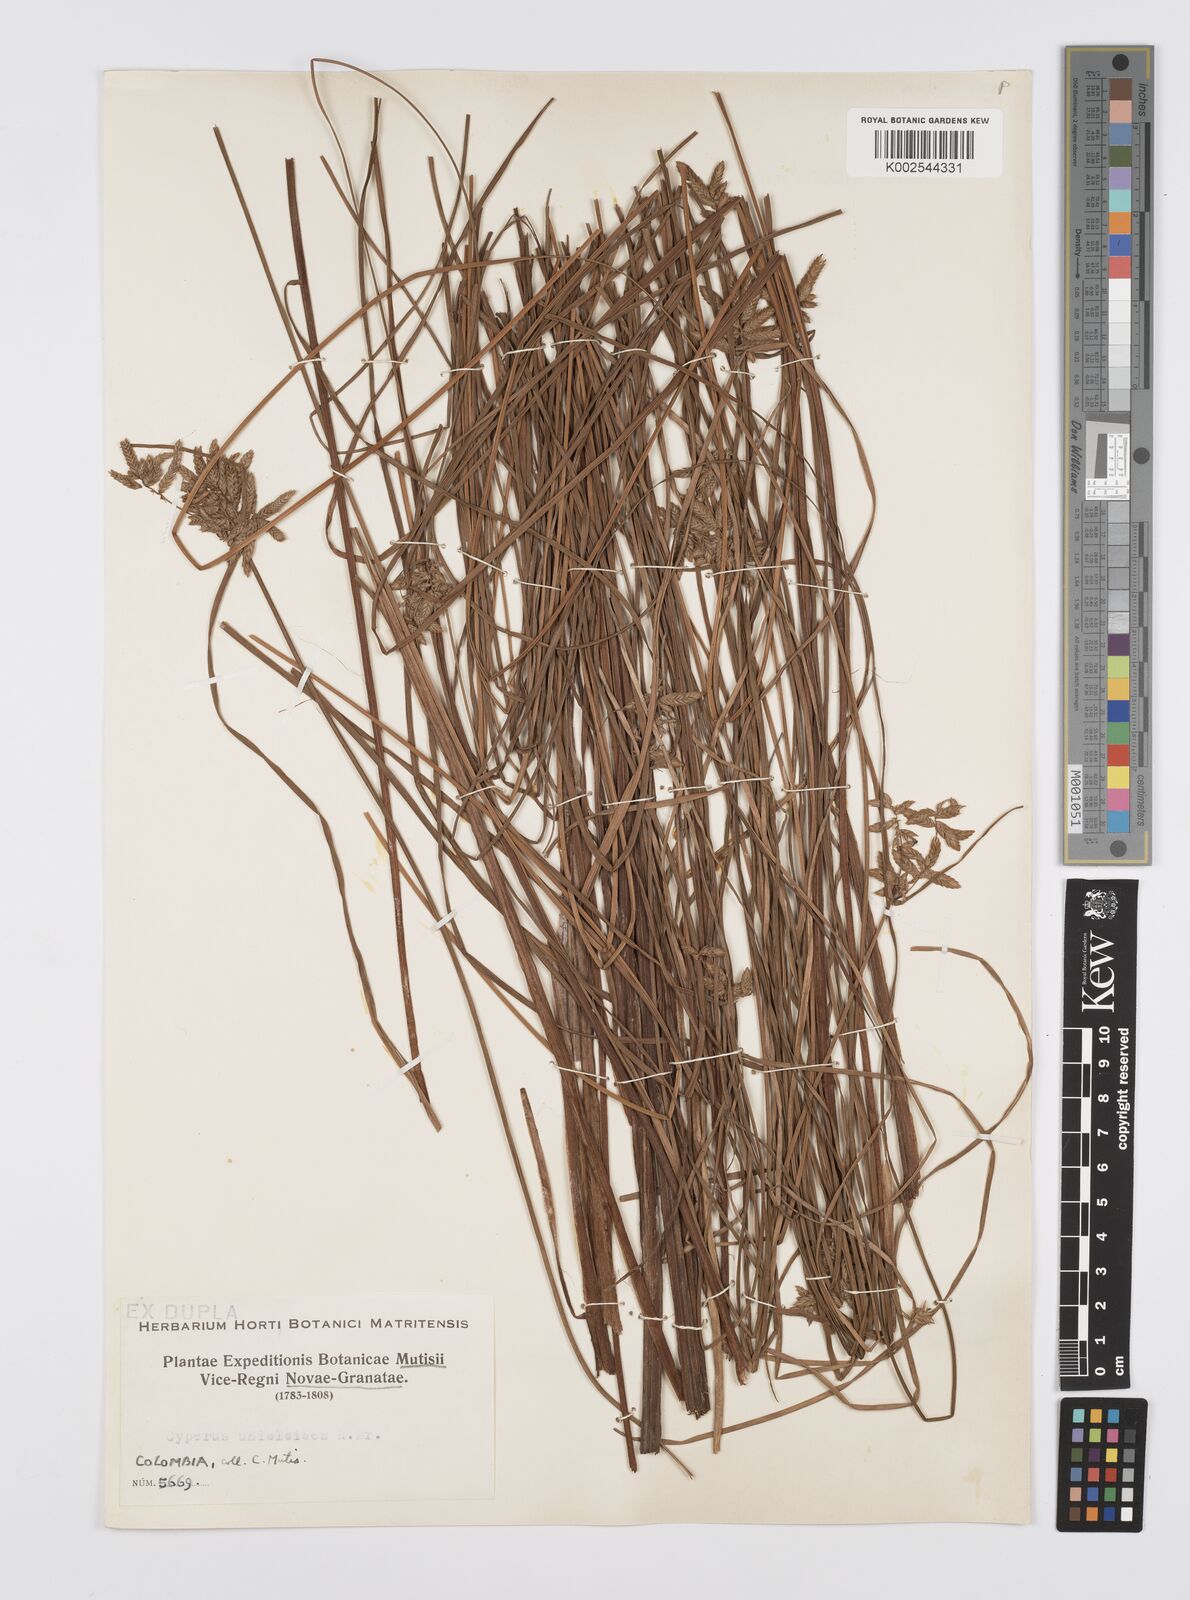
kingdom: Plantae
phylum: Tracheophyta
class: Liliopsida
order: Poales
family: Cyperaceae
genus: Cyperus
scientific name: Cyperus unioloides
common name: Uniola flatsedge
